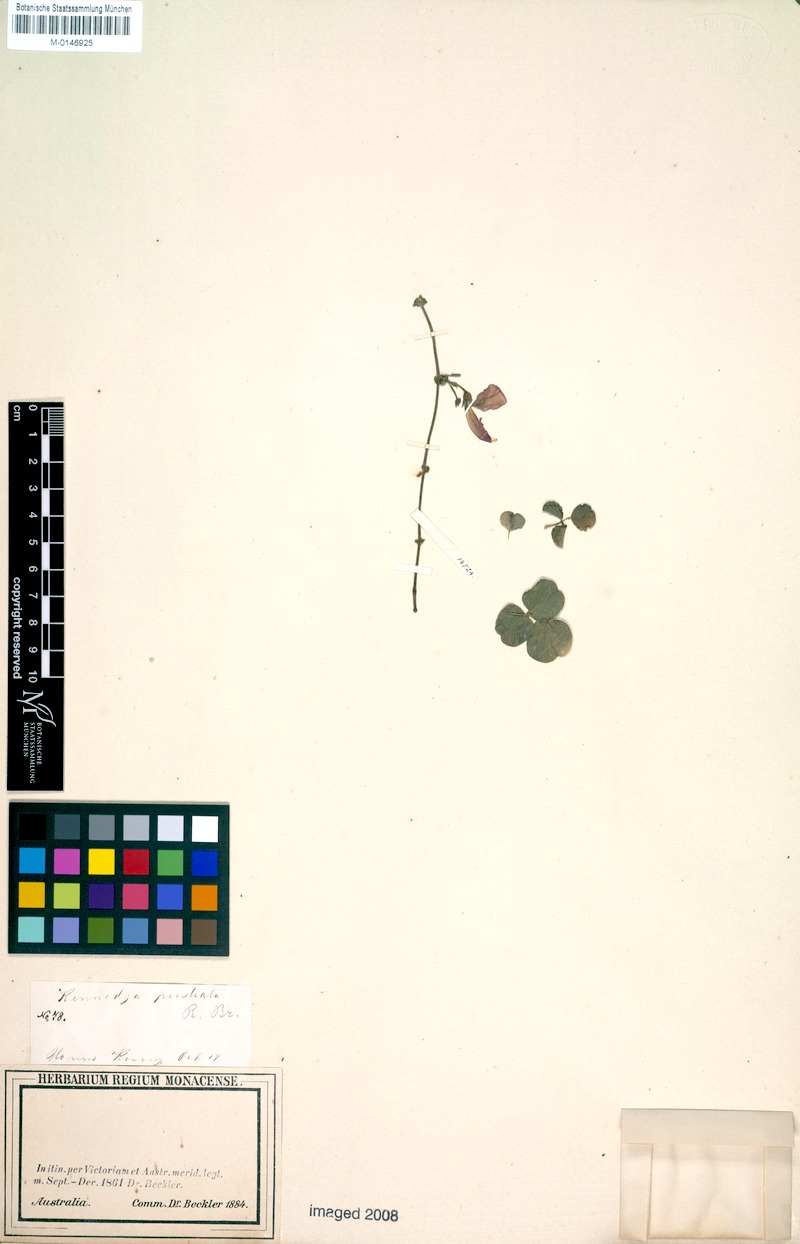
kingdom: Plantae
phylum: Tracheophyta
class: Magnoliopsida
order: Fabales
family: Fabaceae
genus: Kennedia
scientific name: Kennedia prostrata
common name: Running-postman
